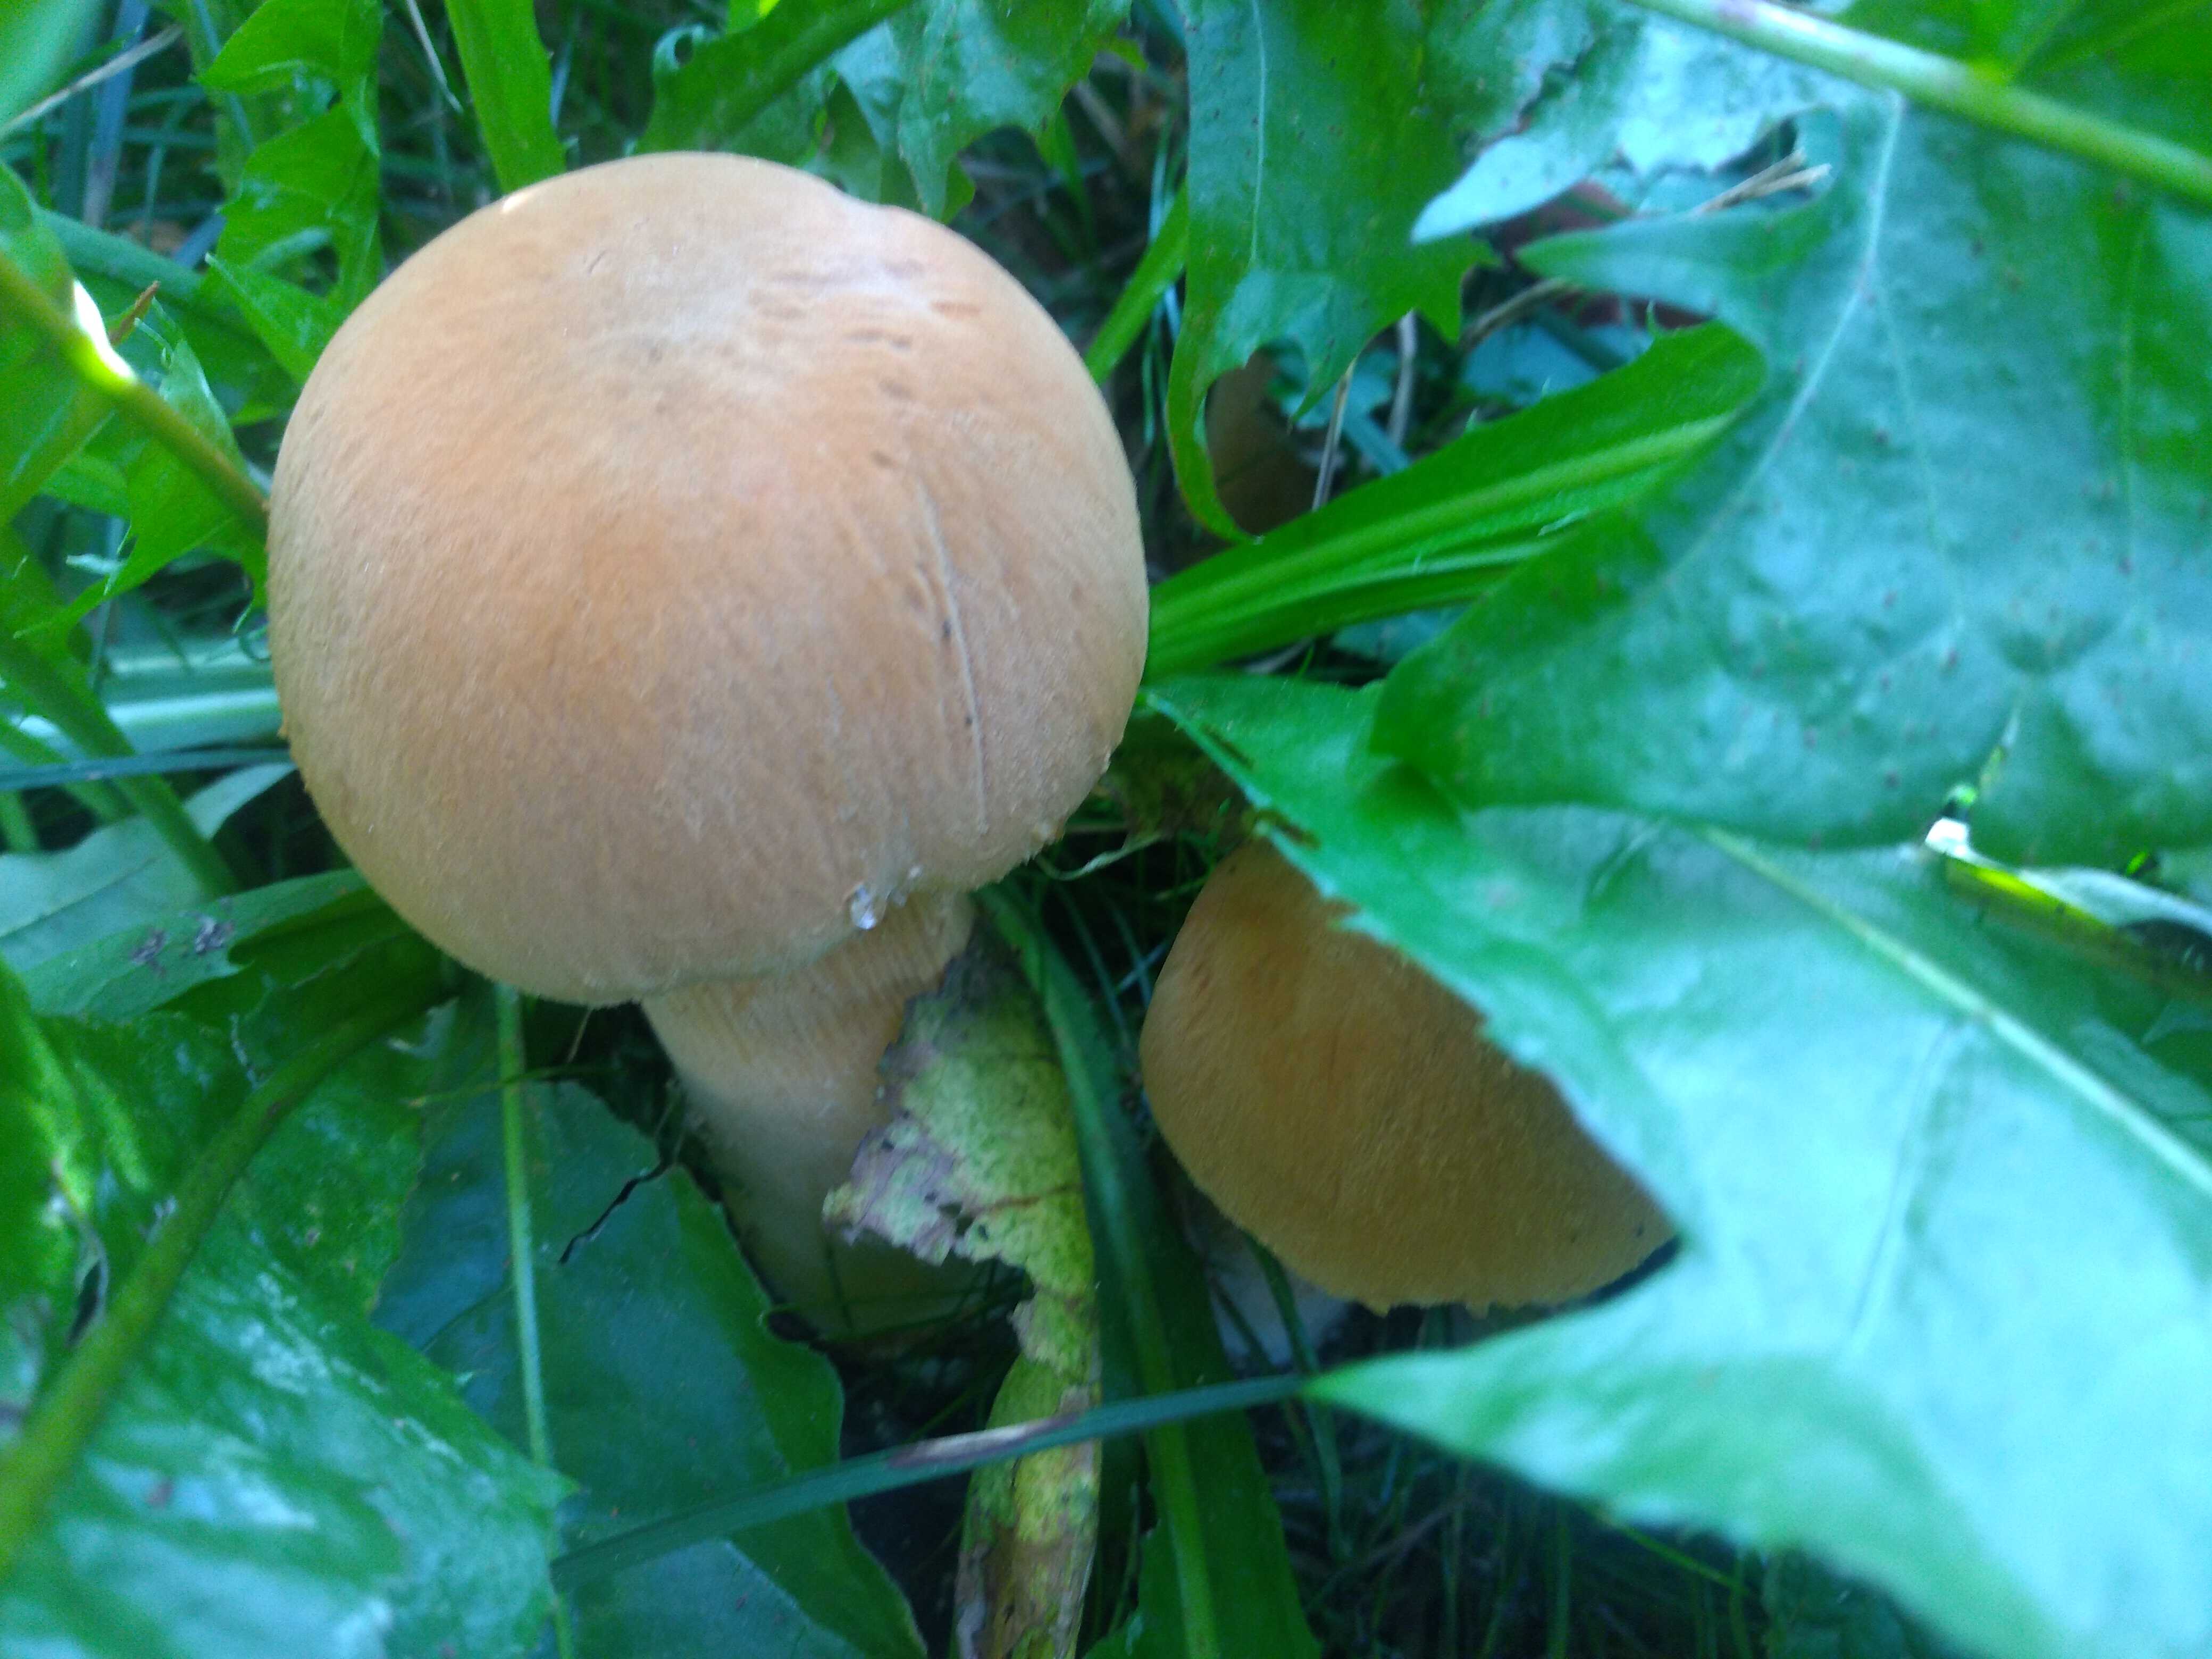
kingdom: Fungi
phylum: Basidiomycota
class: Agaricomycetes
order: Agaricales
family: Tricholomataceae
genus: Phaeolepiota
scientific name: Phaeolepiota aurea
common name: gyldenhat
